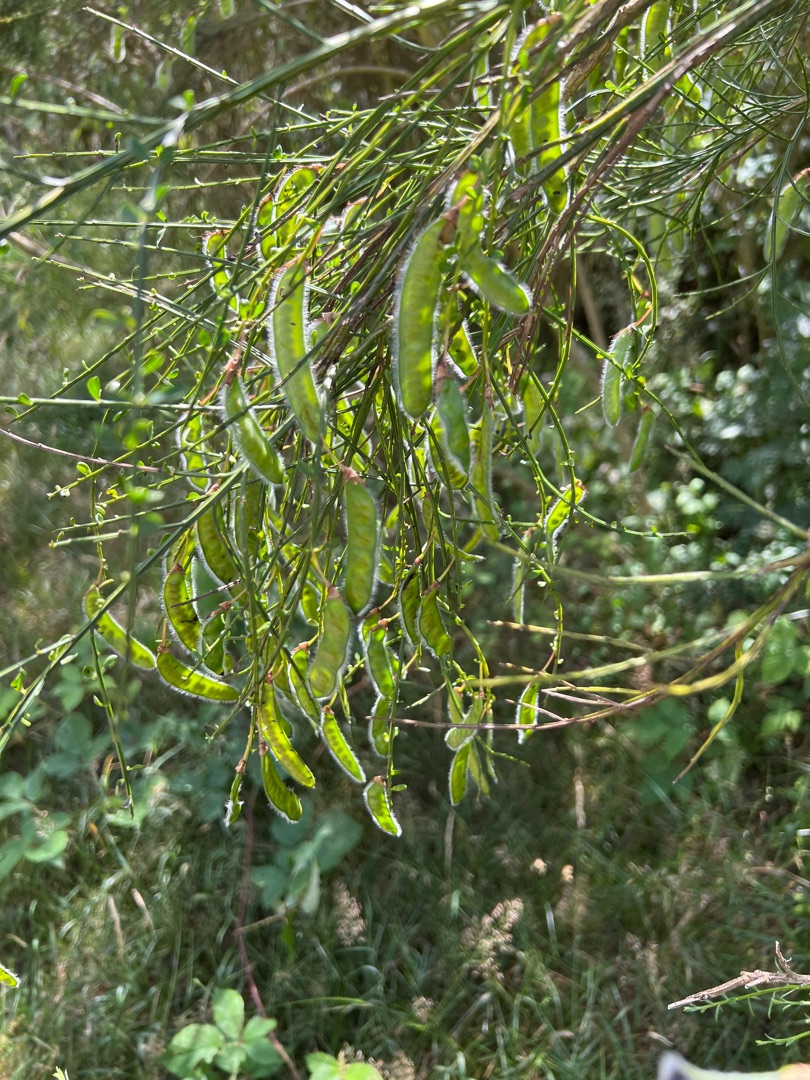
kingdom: Plantae
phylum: Tracheophyta
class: Magnoliopsida
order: Fabales
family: Fabaceae
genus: Cytisus
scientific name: Cytisus scoparius
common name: Almindelig gyvel
